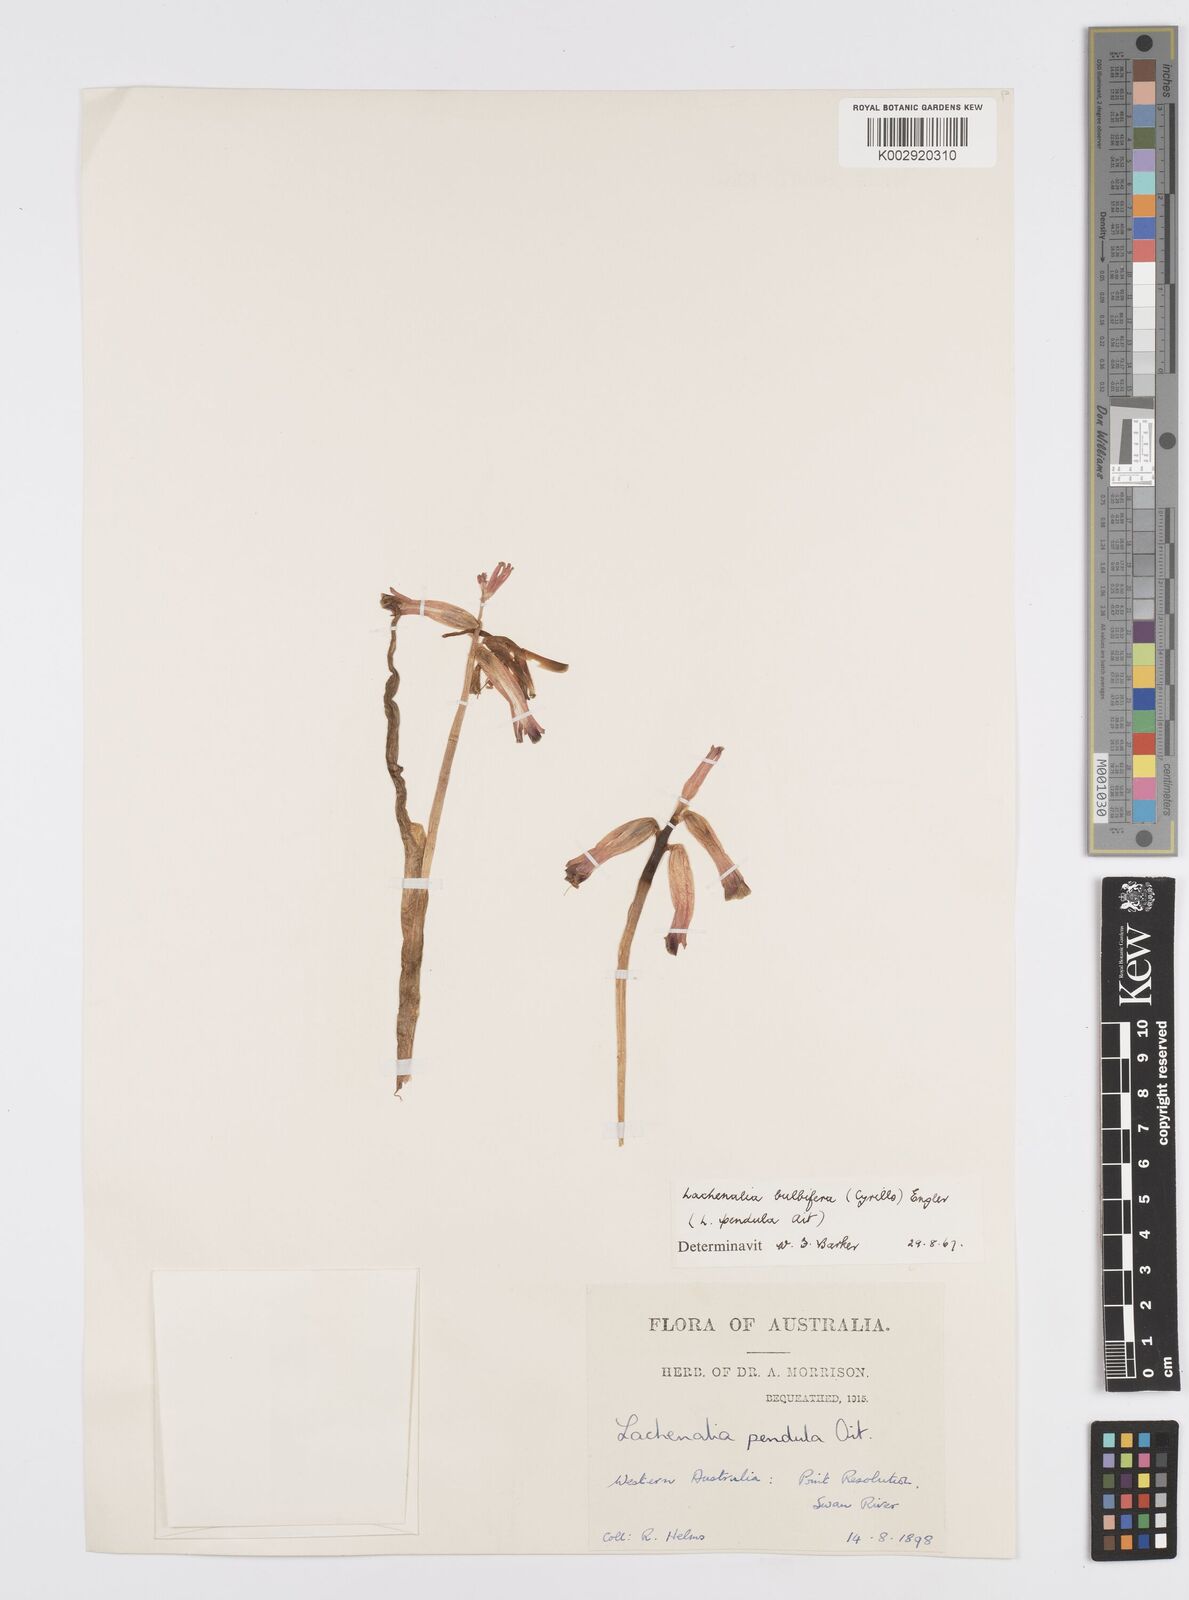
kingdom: Plantae
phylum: Tracheophyta
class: Liliopsida
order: Asparagales
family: Asparagaceae
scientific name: Asparagaceae
